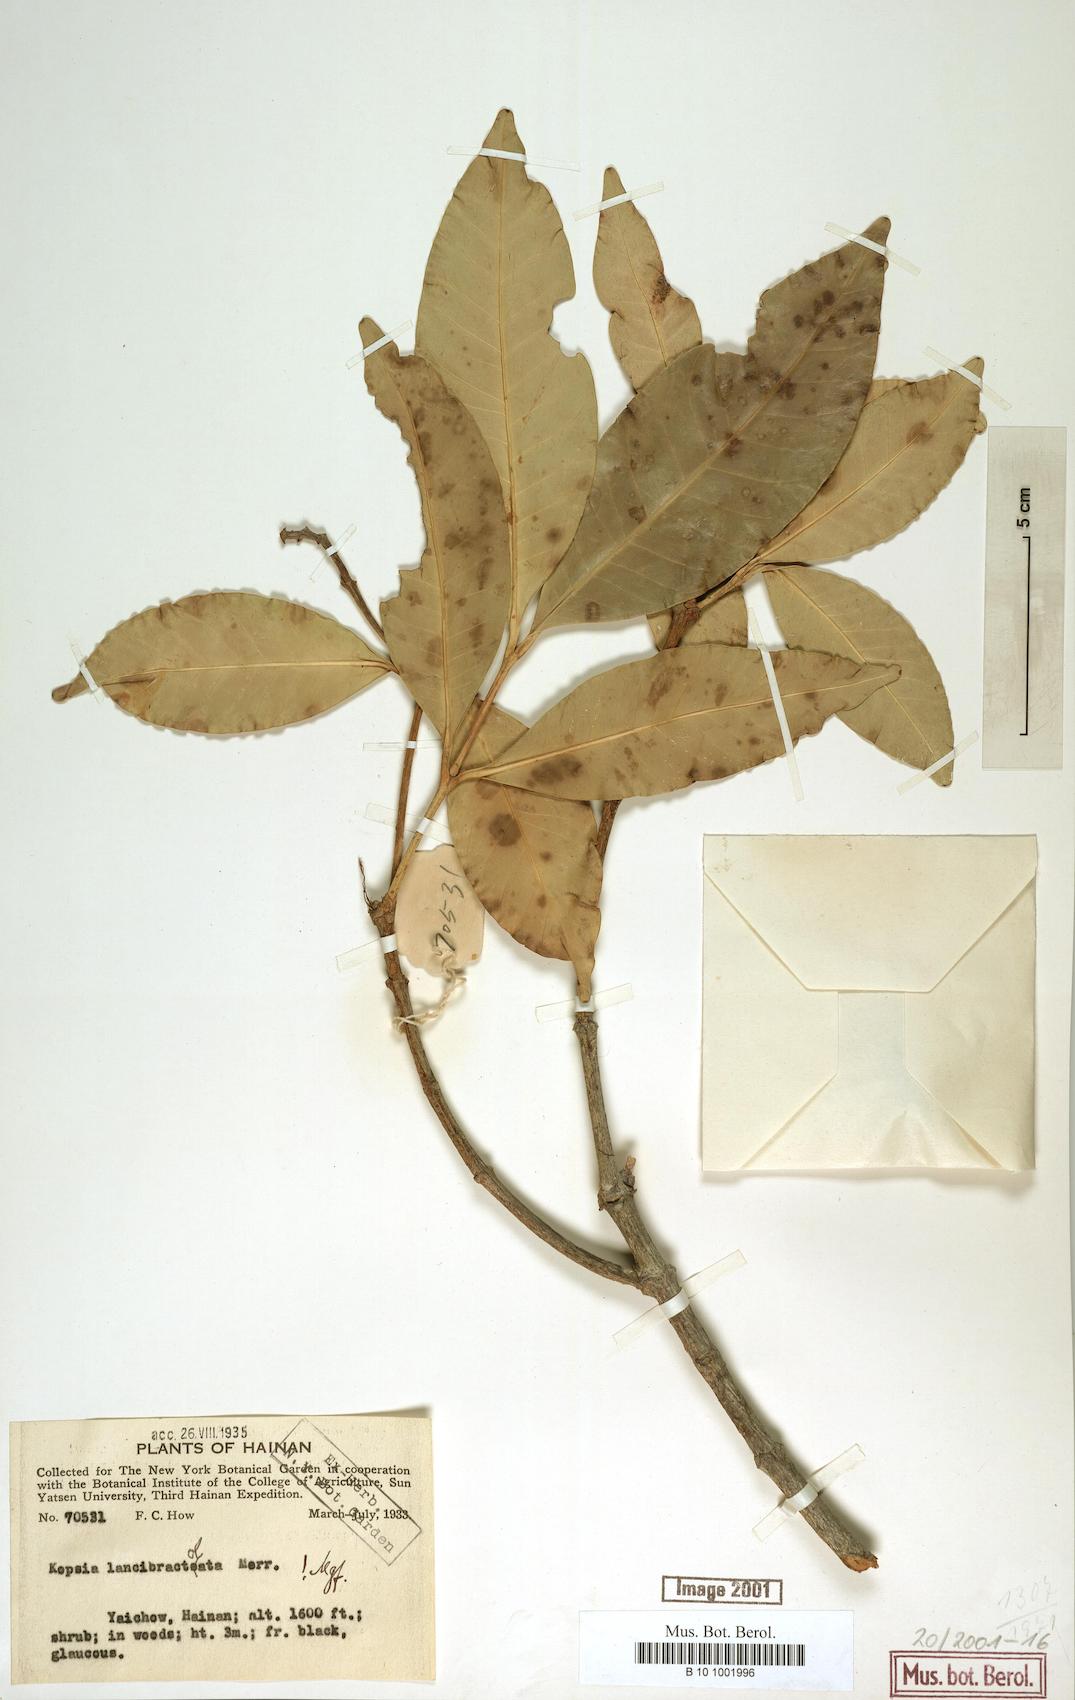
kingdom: Plantae
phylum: Tracheophyta
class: Magnoliopsida
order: Gentianales
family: Apocynaceae
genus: Kopsia
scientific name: Kopsia arborea
